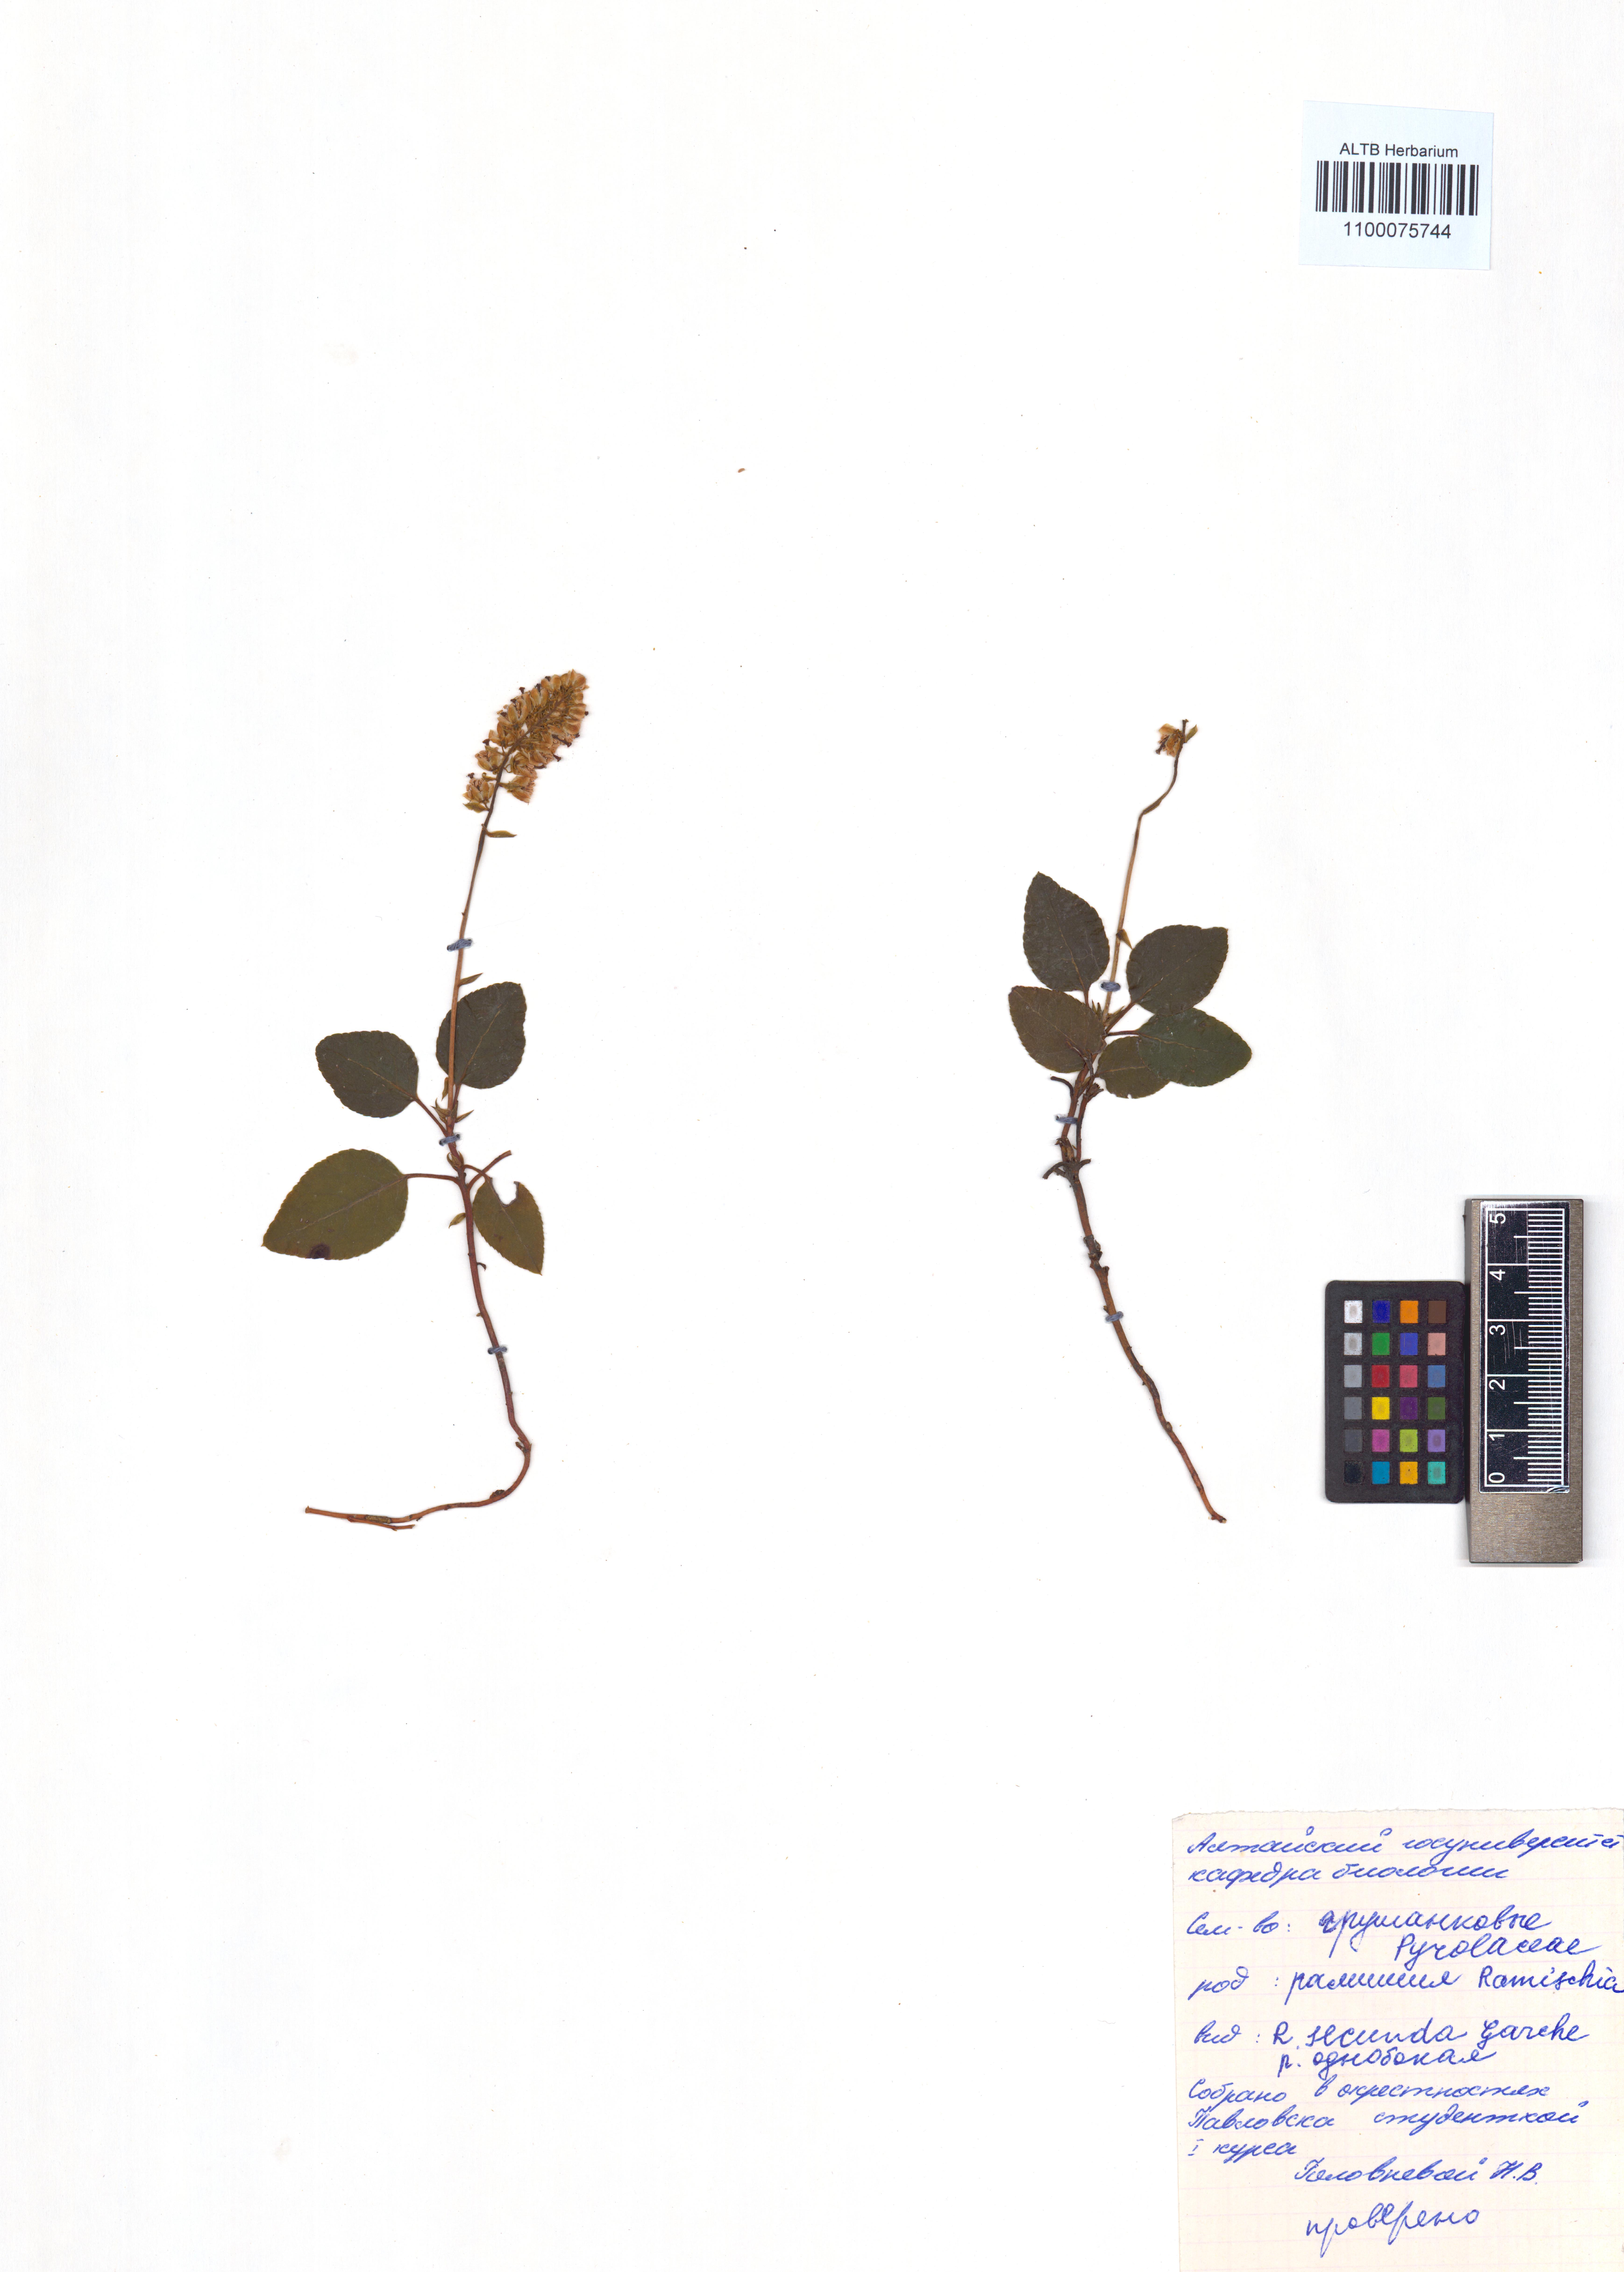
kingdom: Plantae
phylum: Tracheophyta
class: Magnoliopsida
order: Ericales
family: Ericaceae
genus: Orthilia
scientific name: Orthilia secunda
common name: One-sided orthilia
